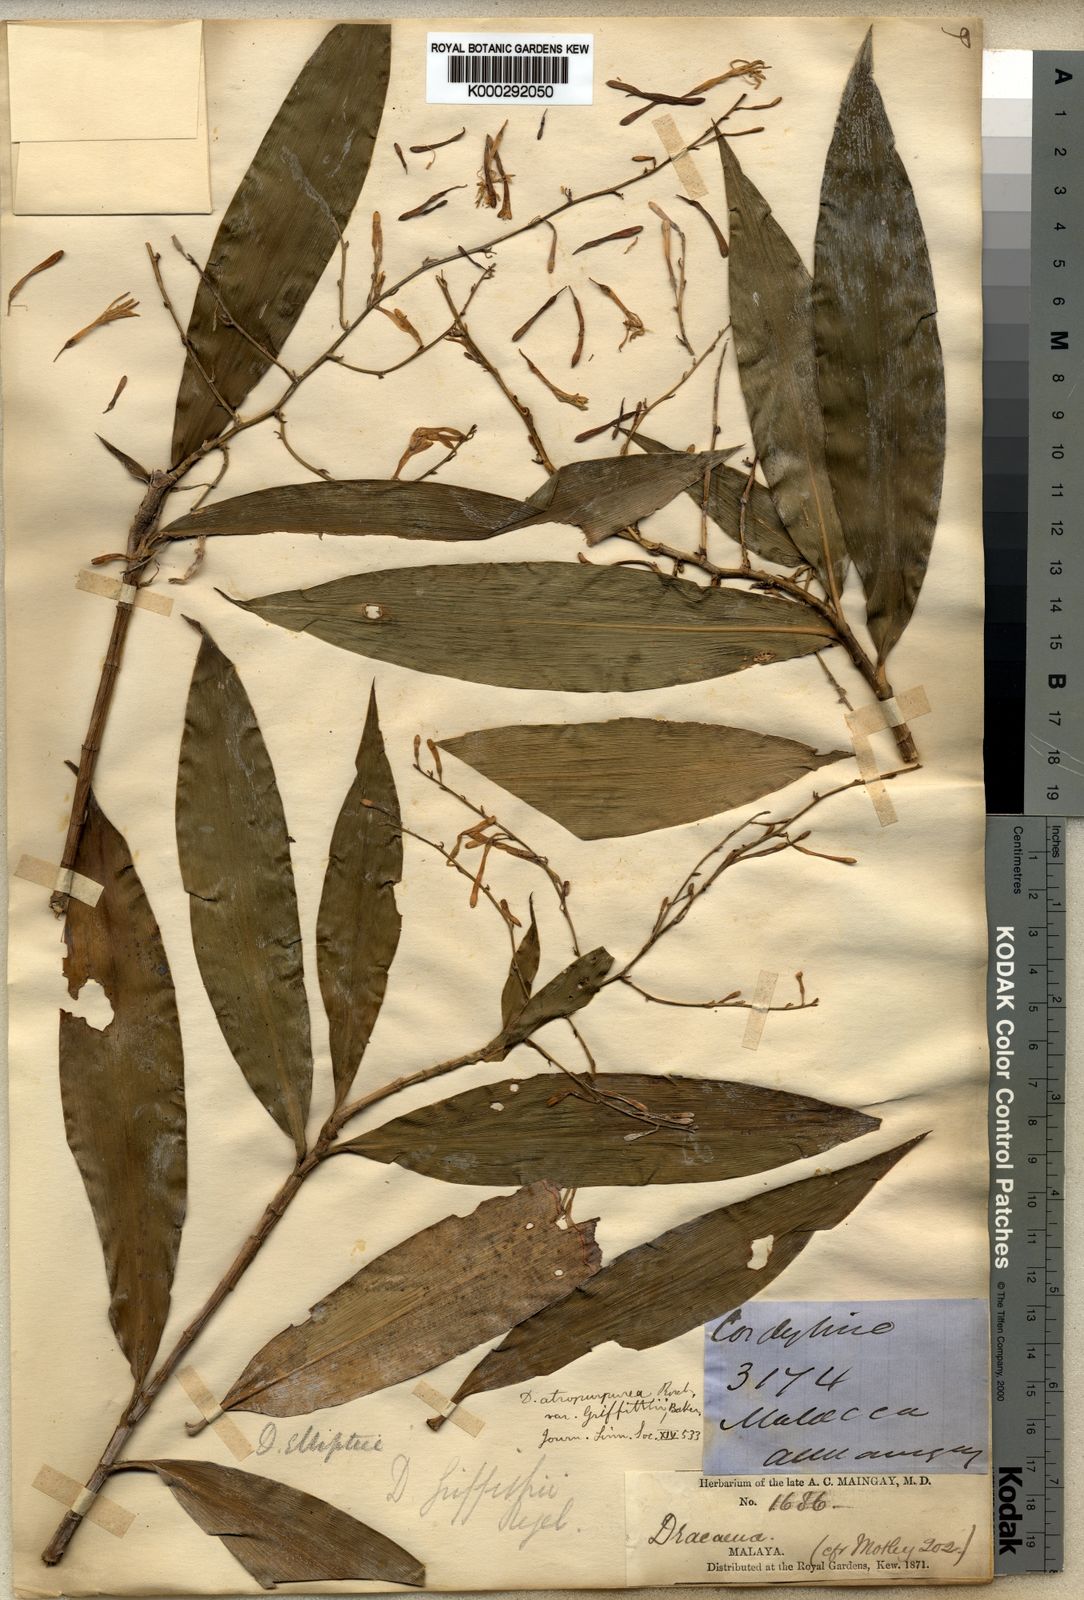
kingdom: Plantae
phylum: Tracheophyta
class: Liliopsida
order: Asparagales
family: Asparagaceae
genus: Dracaena
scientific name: Dracaena elliptica
